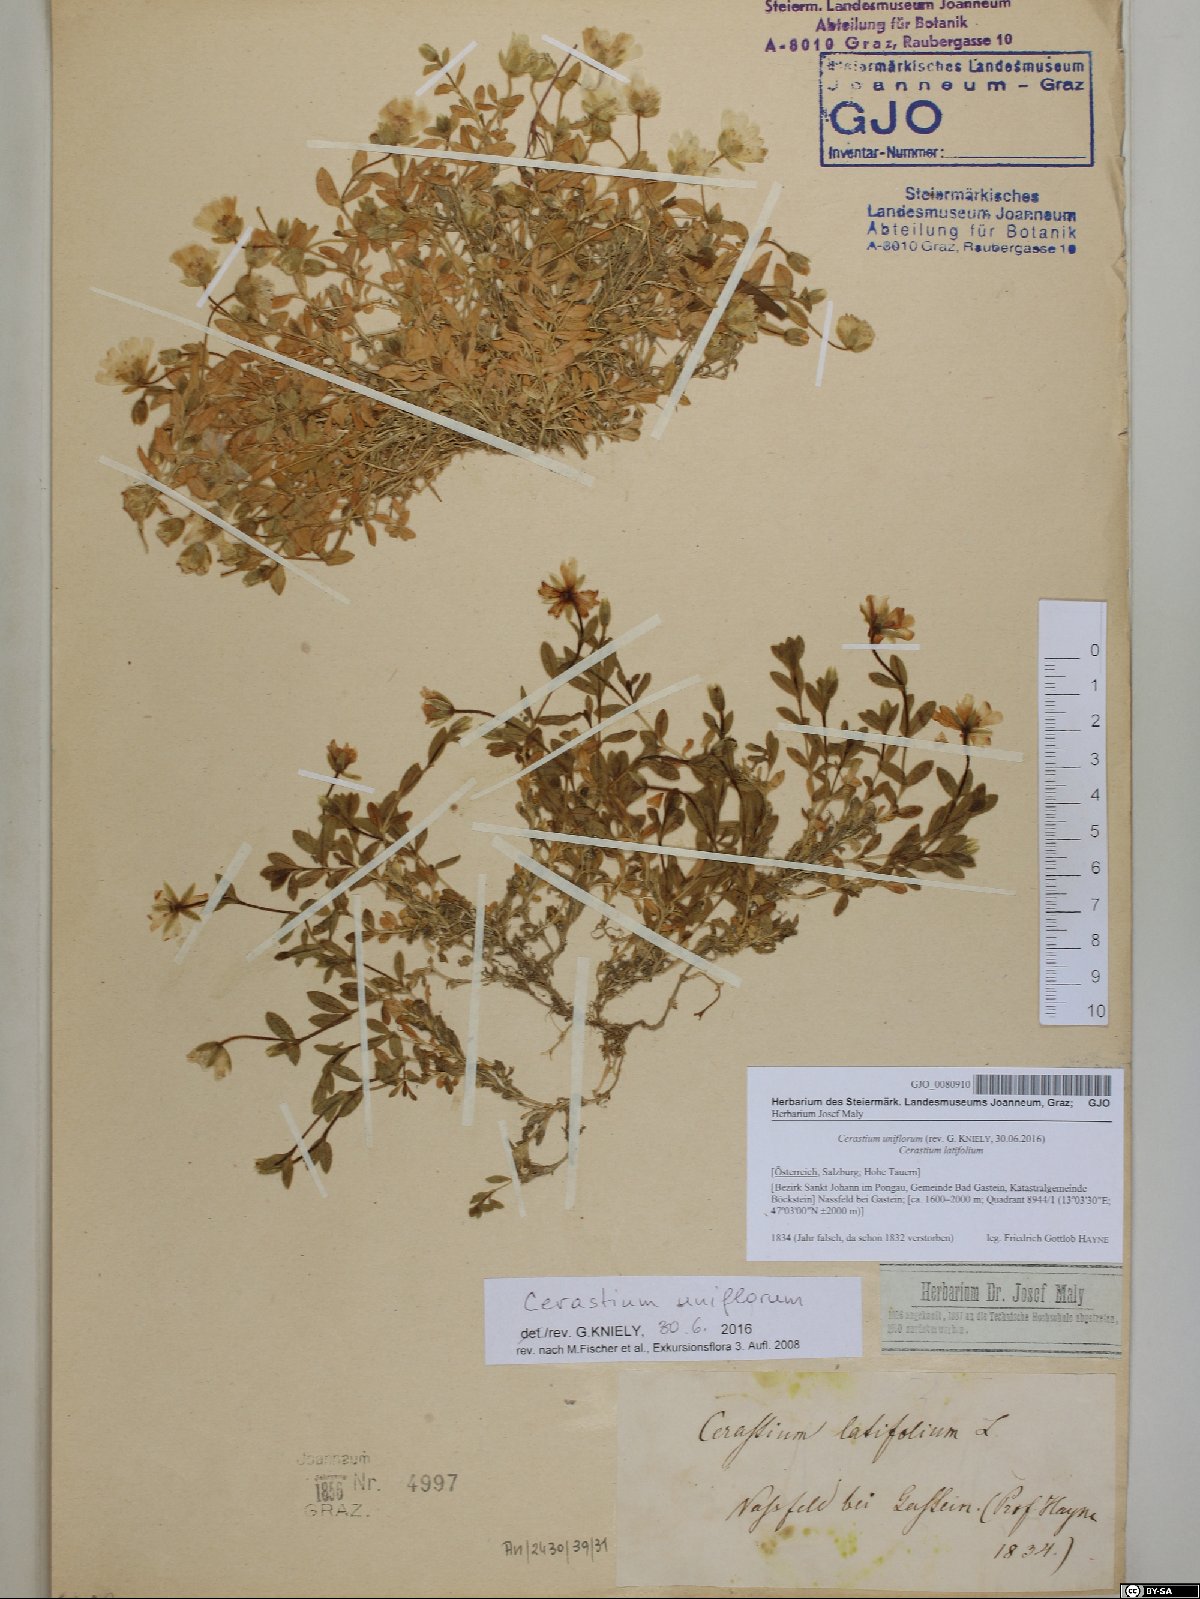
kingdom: Plantae
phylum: Tracheophyta
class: Magnoliopsida
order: Caryophyllales
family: Caryophyllaceae
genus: Cerastium
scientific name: Cerastium uniflorum
